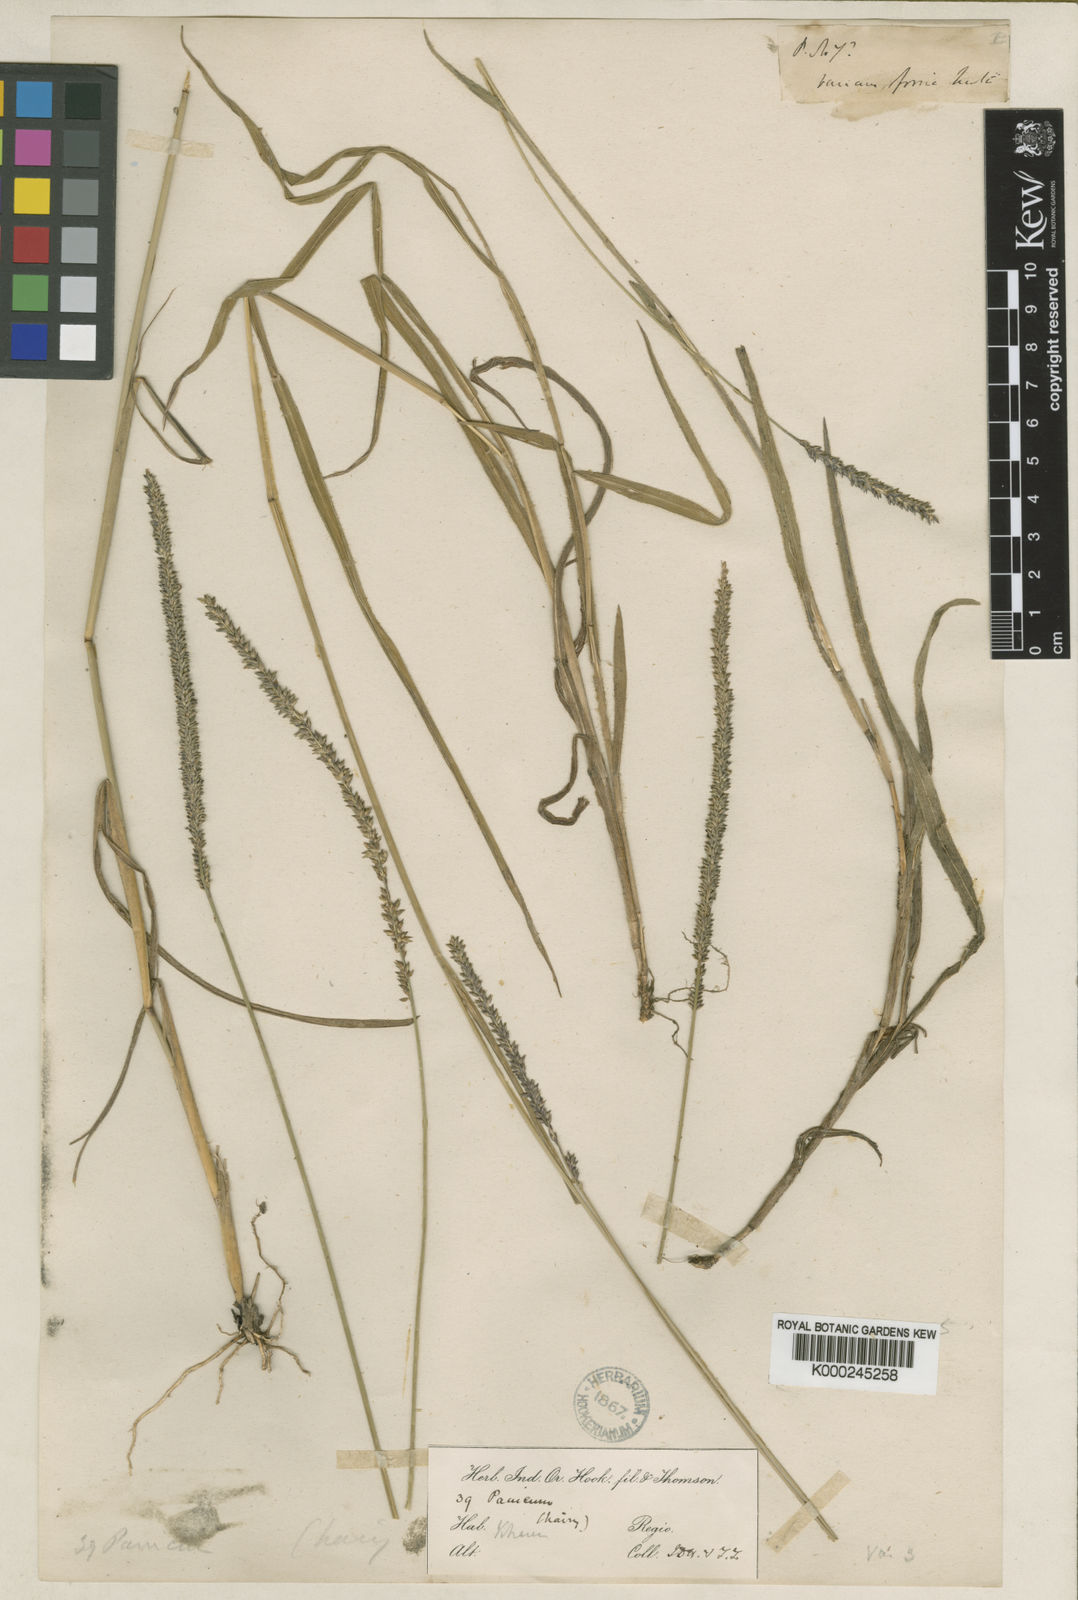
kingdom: Plantae
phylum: Tracheophyta
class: Liliopsida
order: Poales
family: Poaceae
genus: Sacciolepis
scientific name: Sacciolepis indica
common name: Glenwoodgrass
